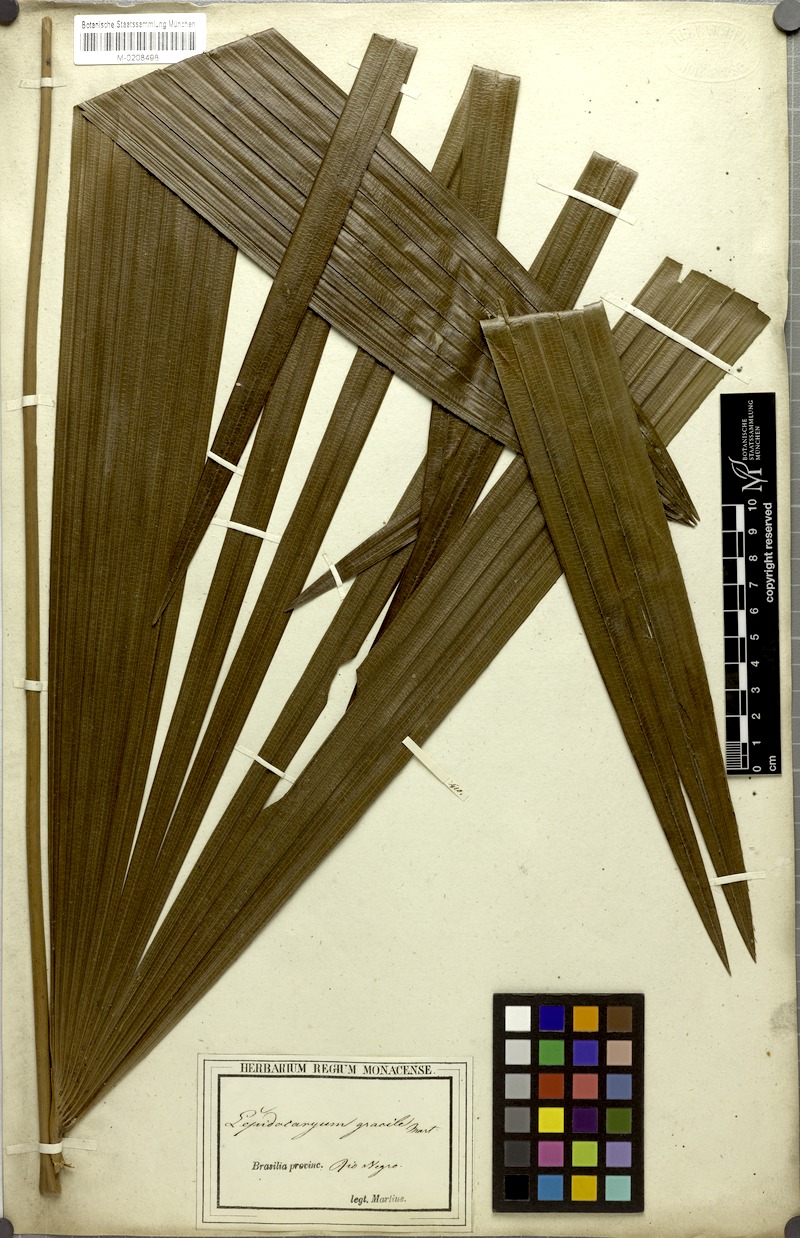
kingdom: Plantae
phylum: Tracheophyta
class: Liliopsida
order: Arecales
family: Arecaceae
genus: Lepidocaryum
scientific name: Lepidocaryum tenue
